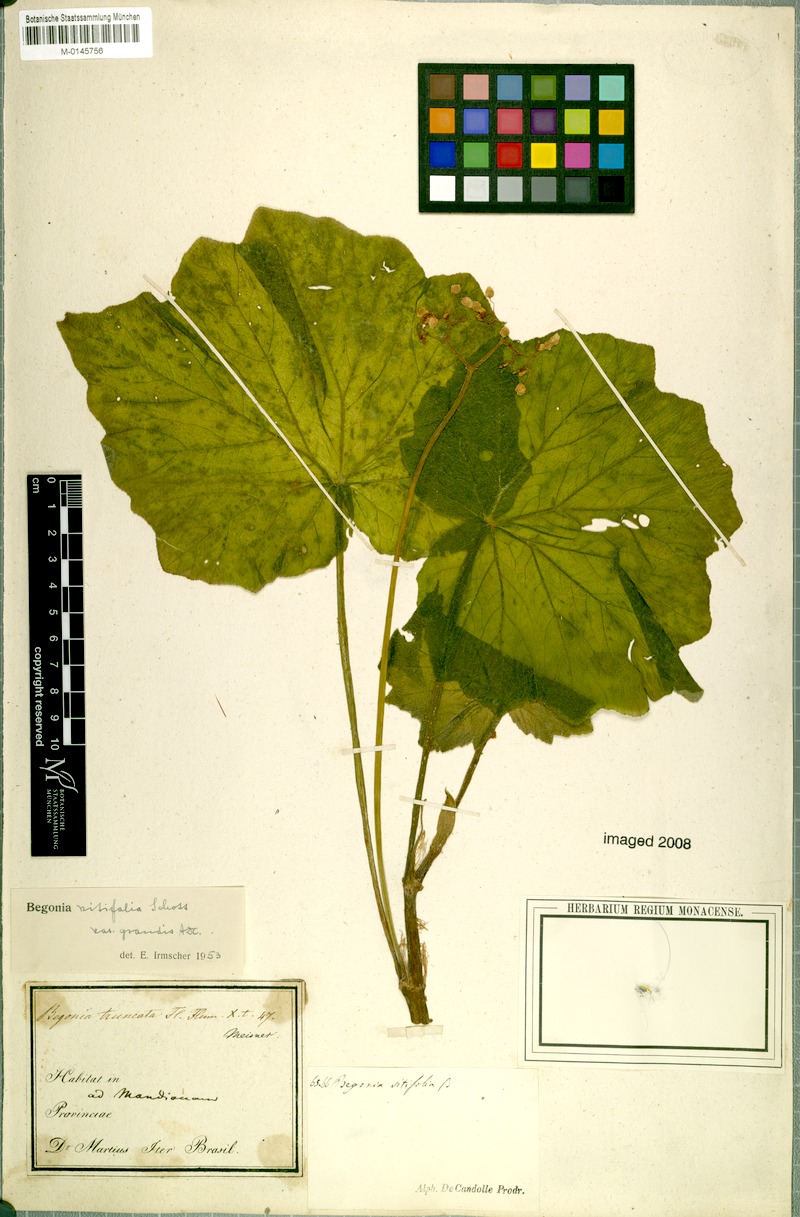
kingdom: Plantae
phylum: Tracheophyta
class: Magnoliopsida
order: Cucurbitales
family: Begoniaceae
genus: Begonia
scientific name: Begonia reniformis
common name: Grapeleaf begonia
